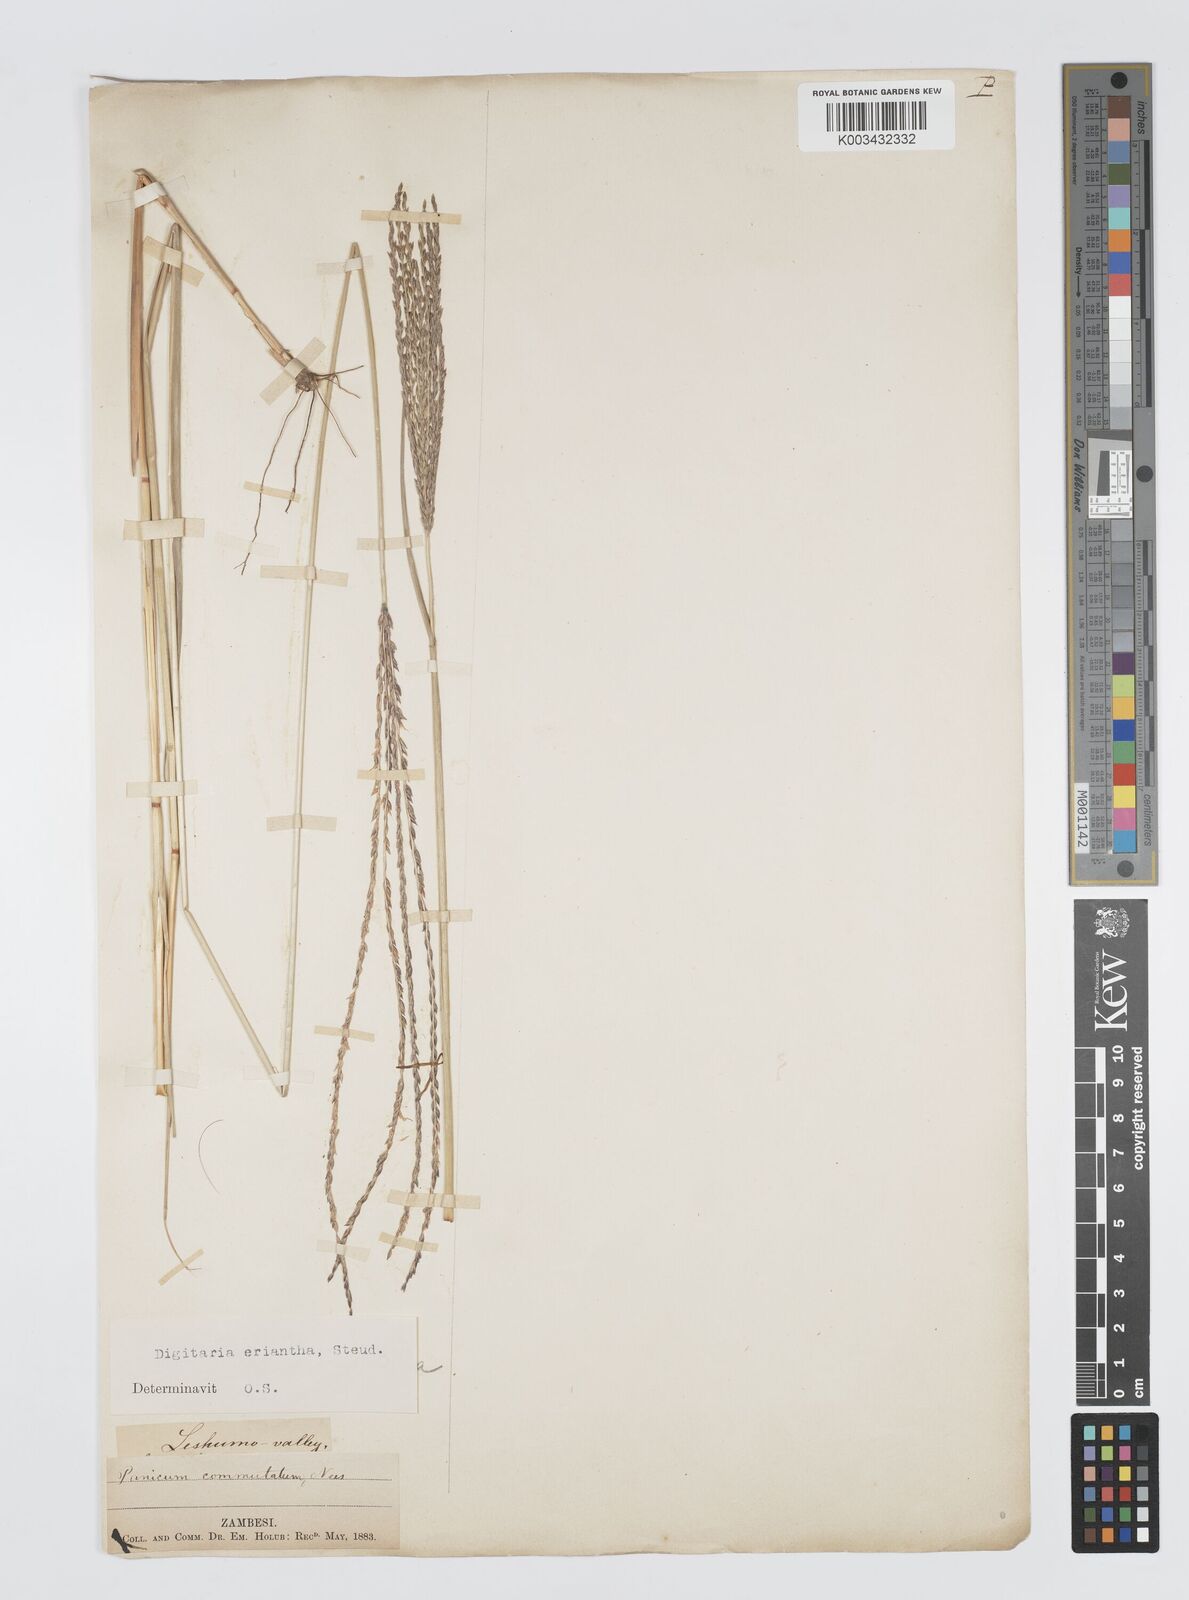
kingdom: Plantae
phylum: Tracheophyta
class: Liliopsida
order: Poales
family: Poaceae
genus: Digitaria
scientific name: Digitaria eriantha
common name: Digitgrass
